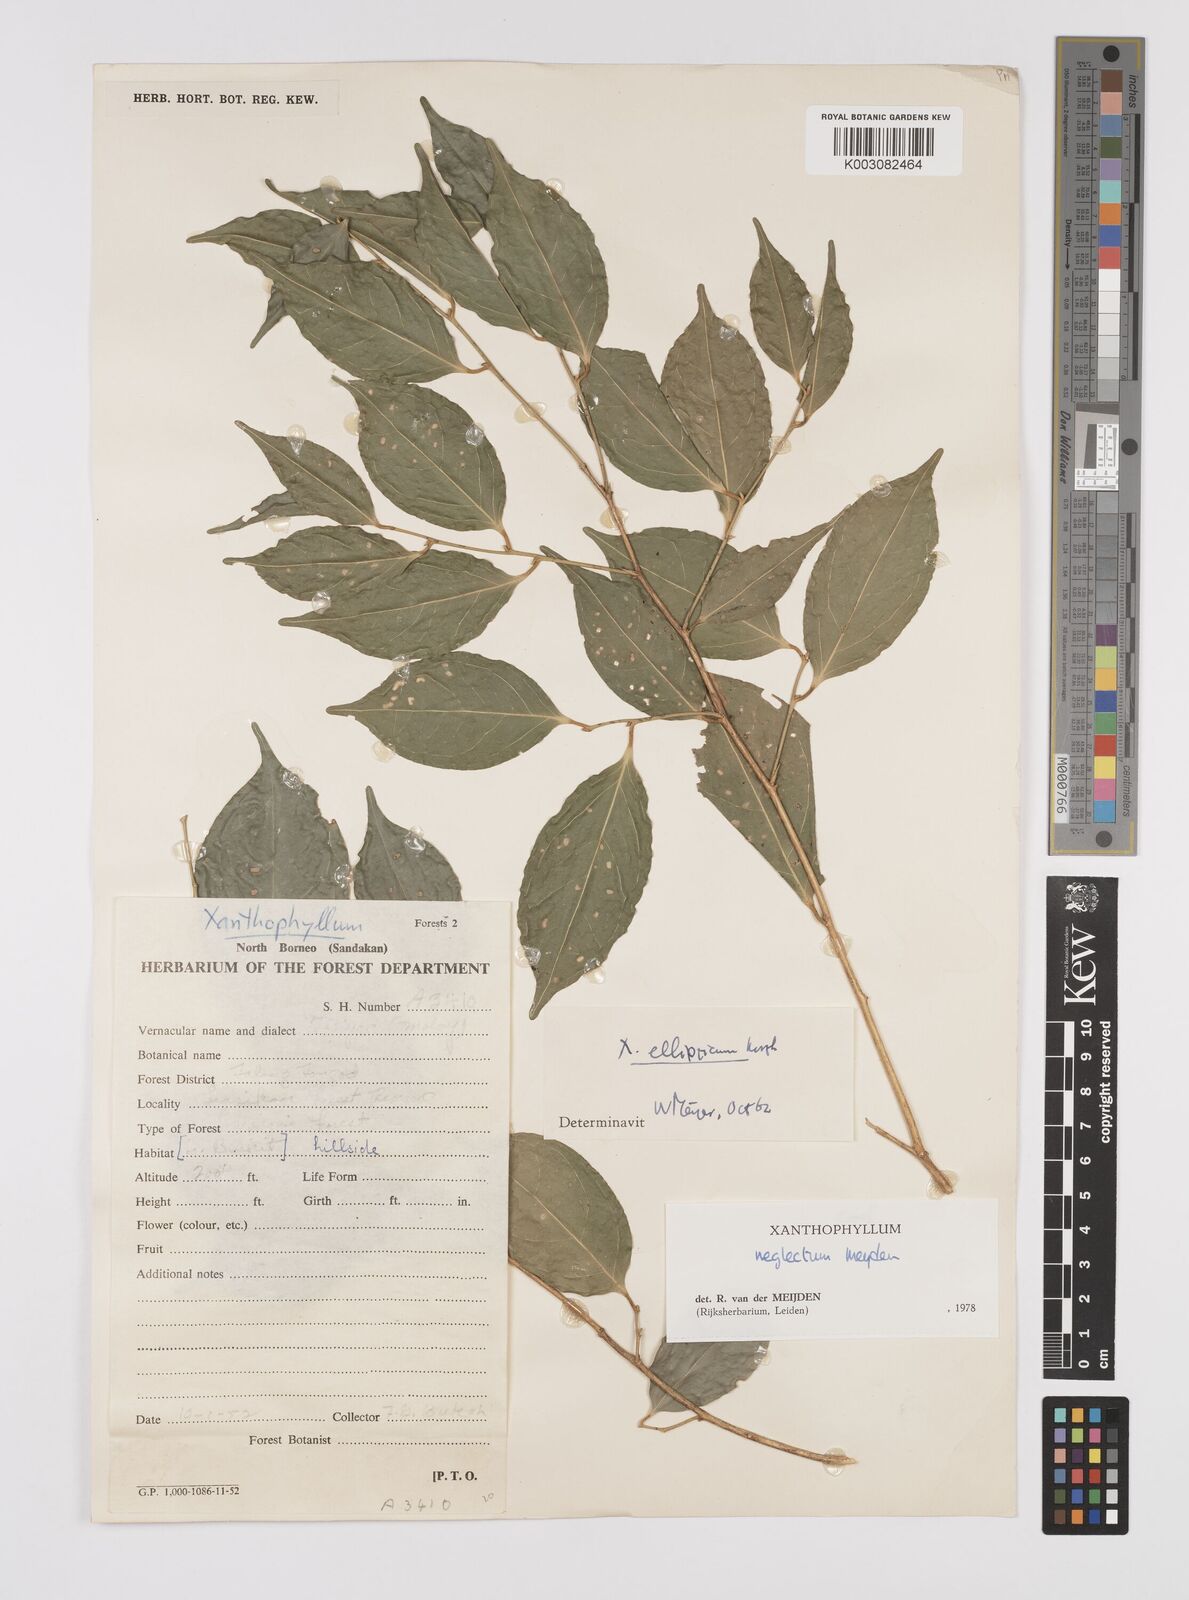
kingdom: Plantae
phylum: Tracheophyta
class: Magnoliopsida
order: Fabales
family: Polygalaceae
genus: Xanthophyllum
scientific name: Xanthophyllum neglectum
